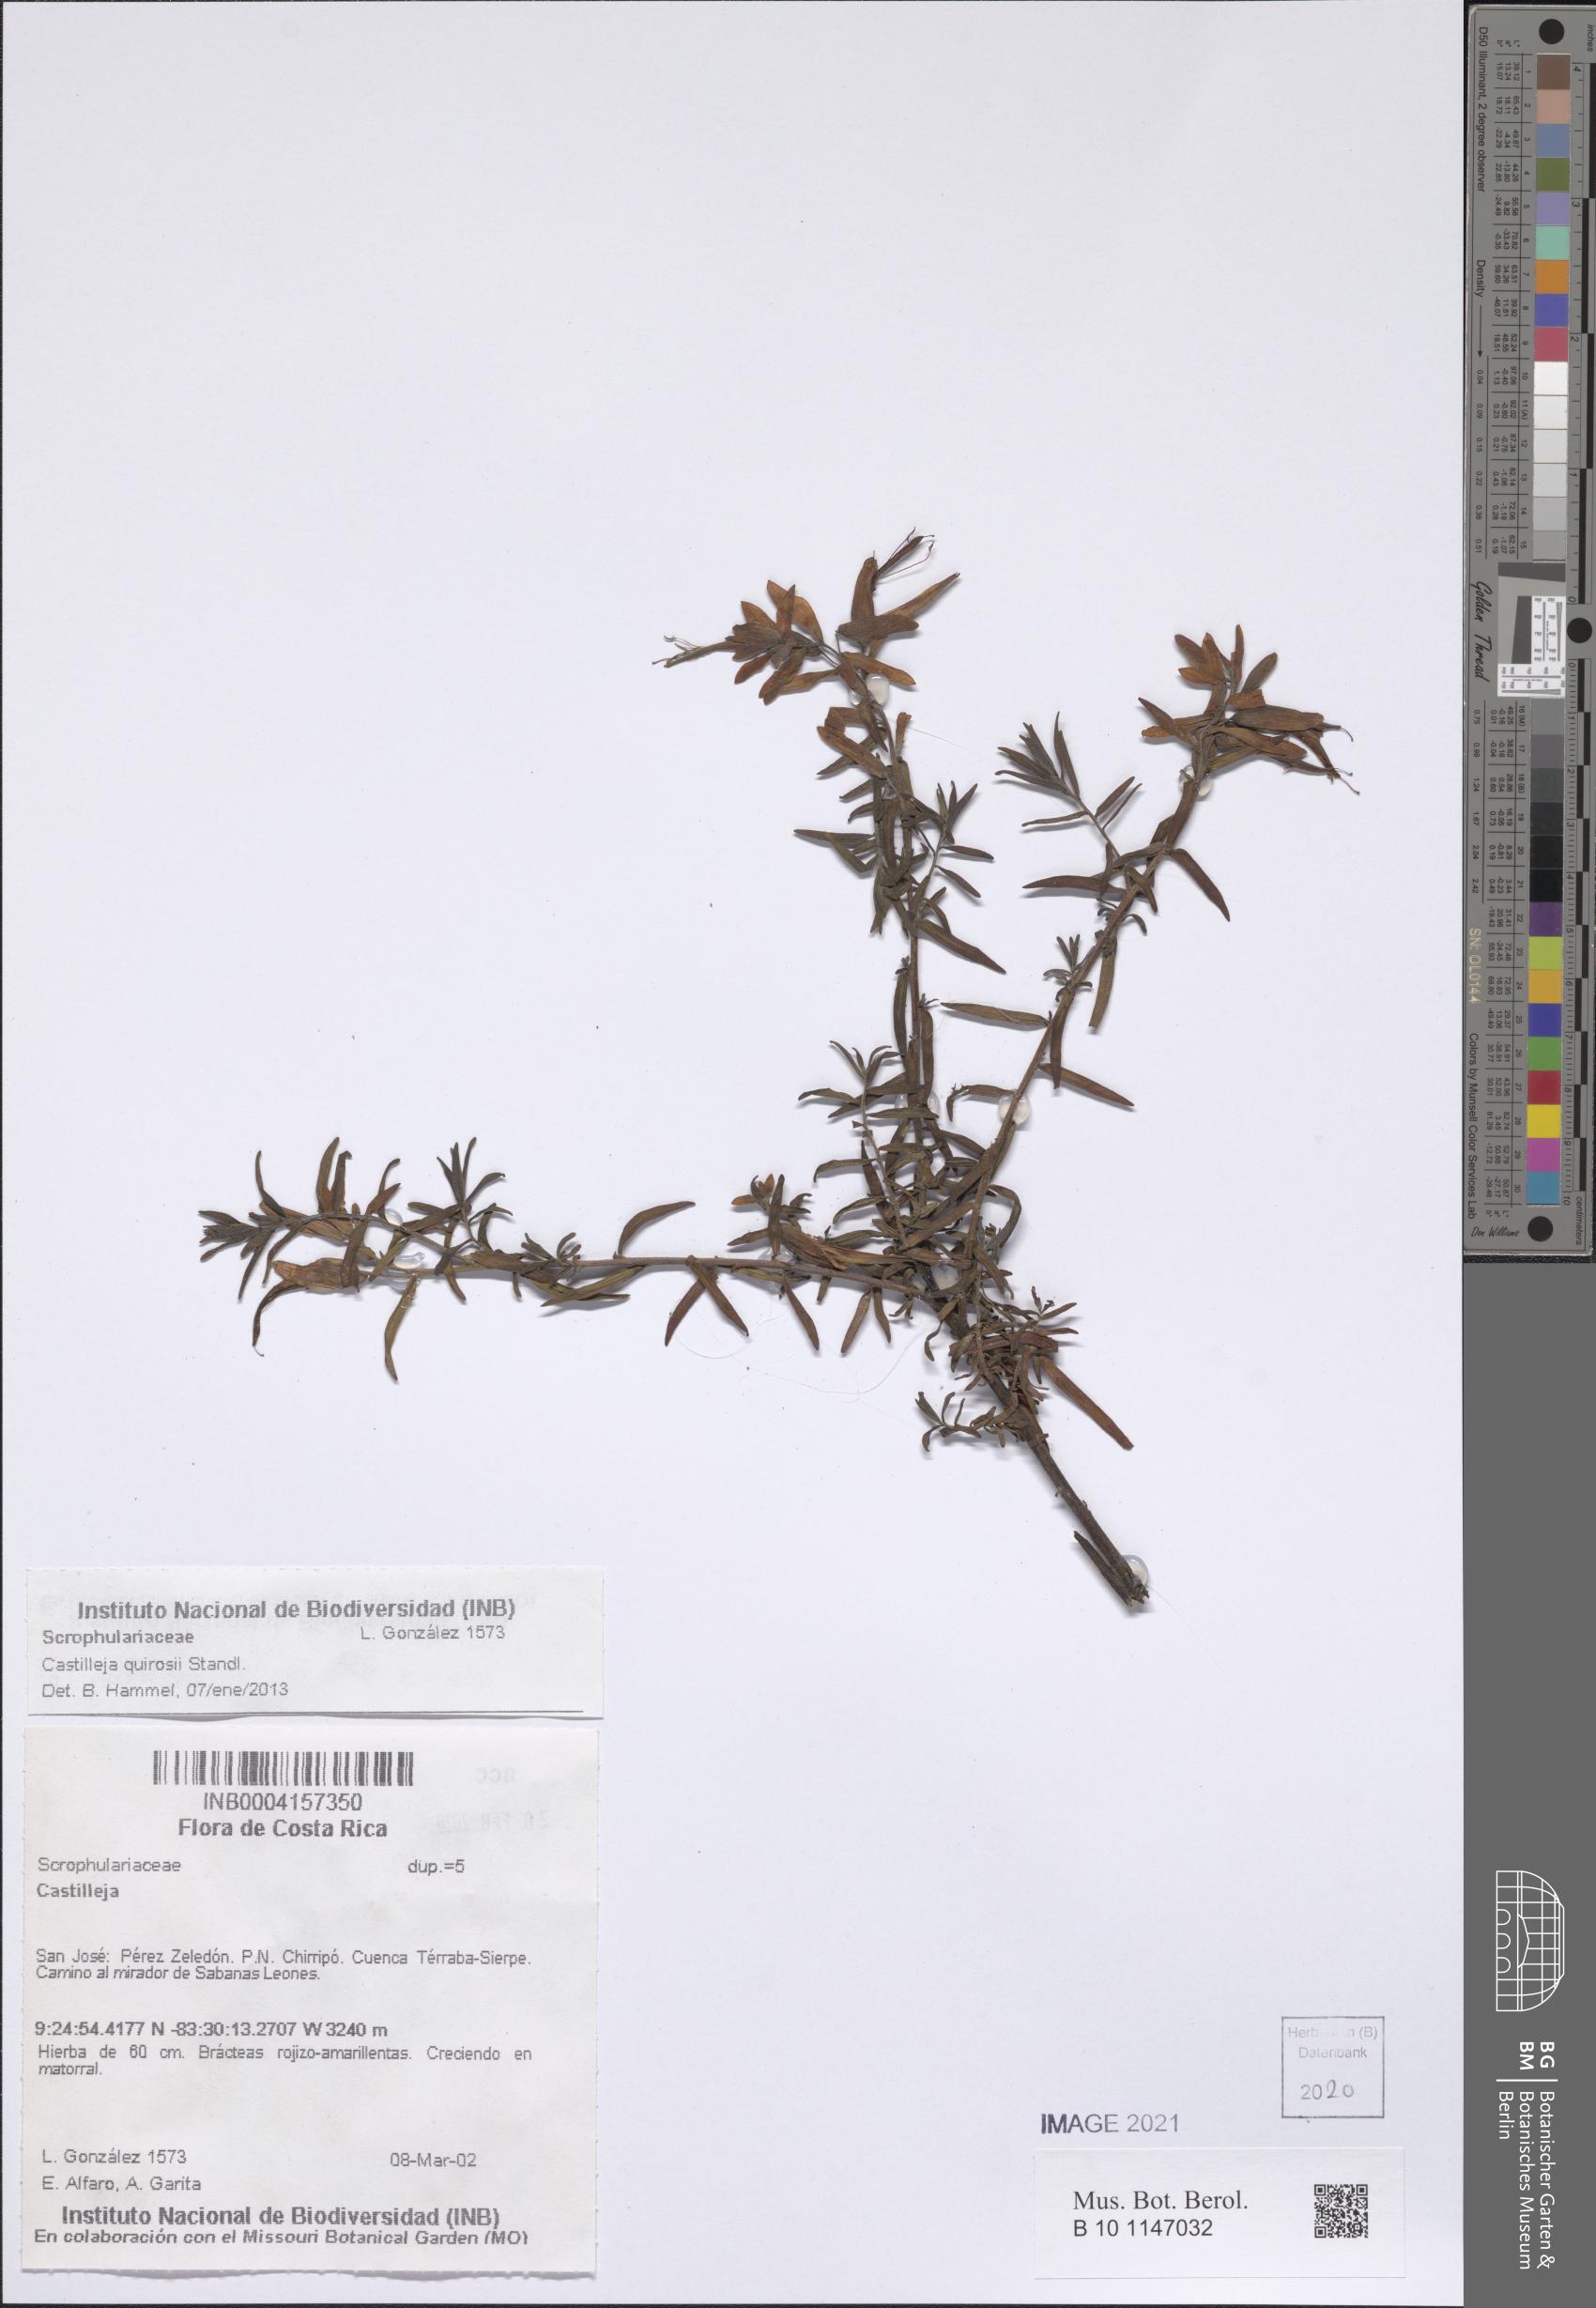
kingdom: Plantae
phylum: Tracheophyta
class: Magnoliopsida
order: Lamiales
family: Orobanchaceae
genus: Castilleja
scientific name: Castilleja quirosii
